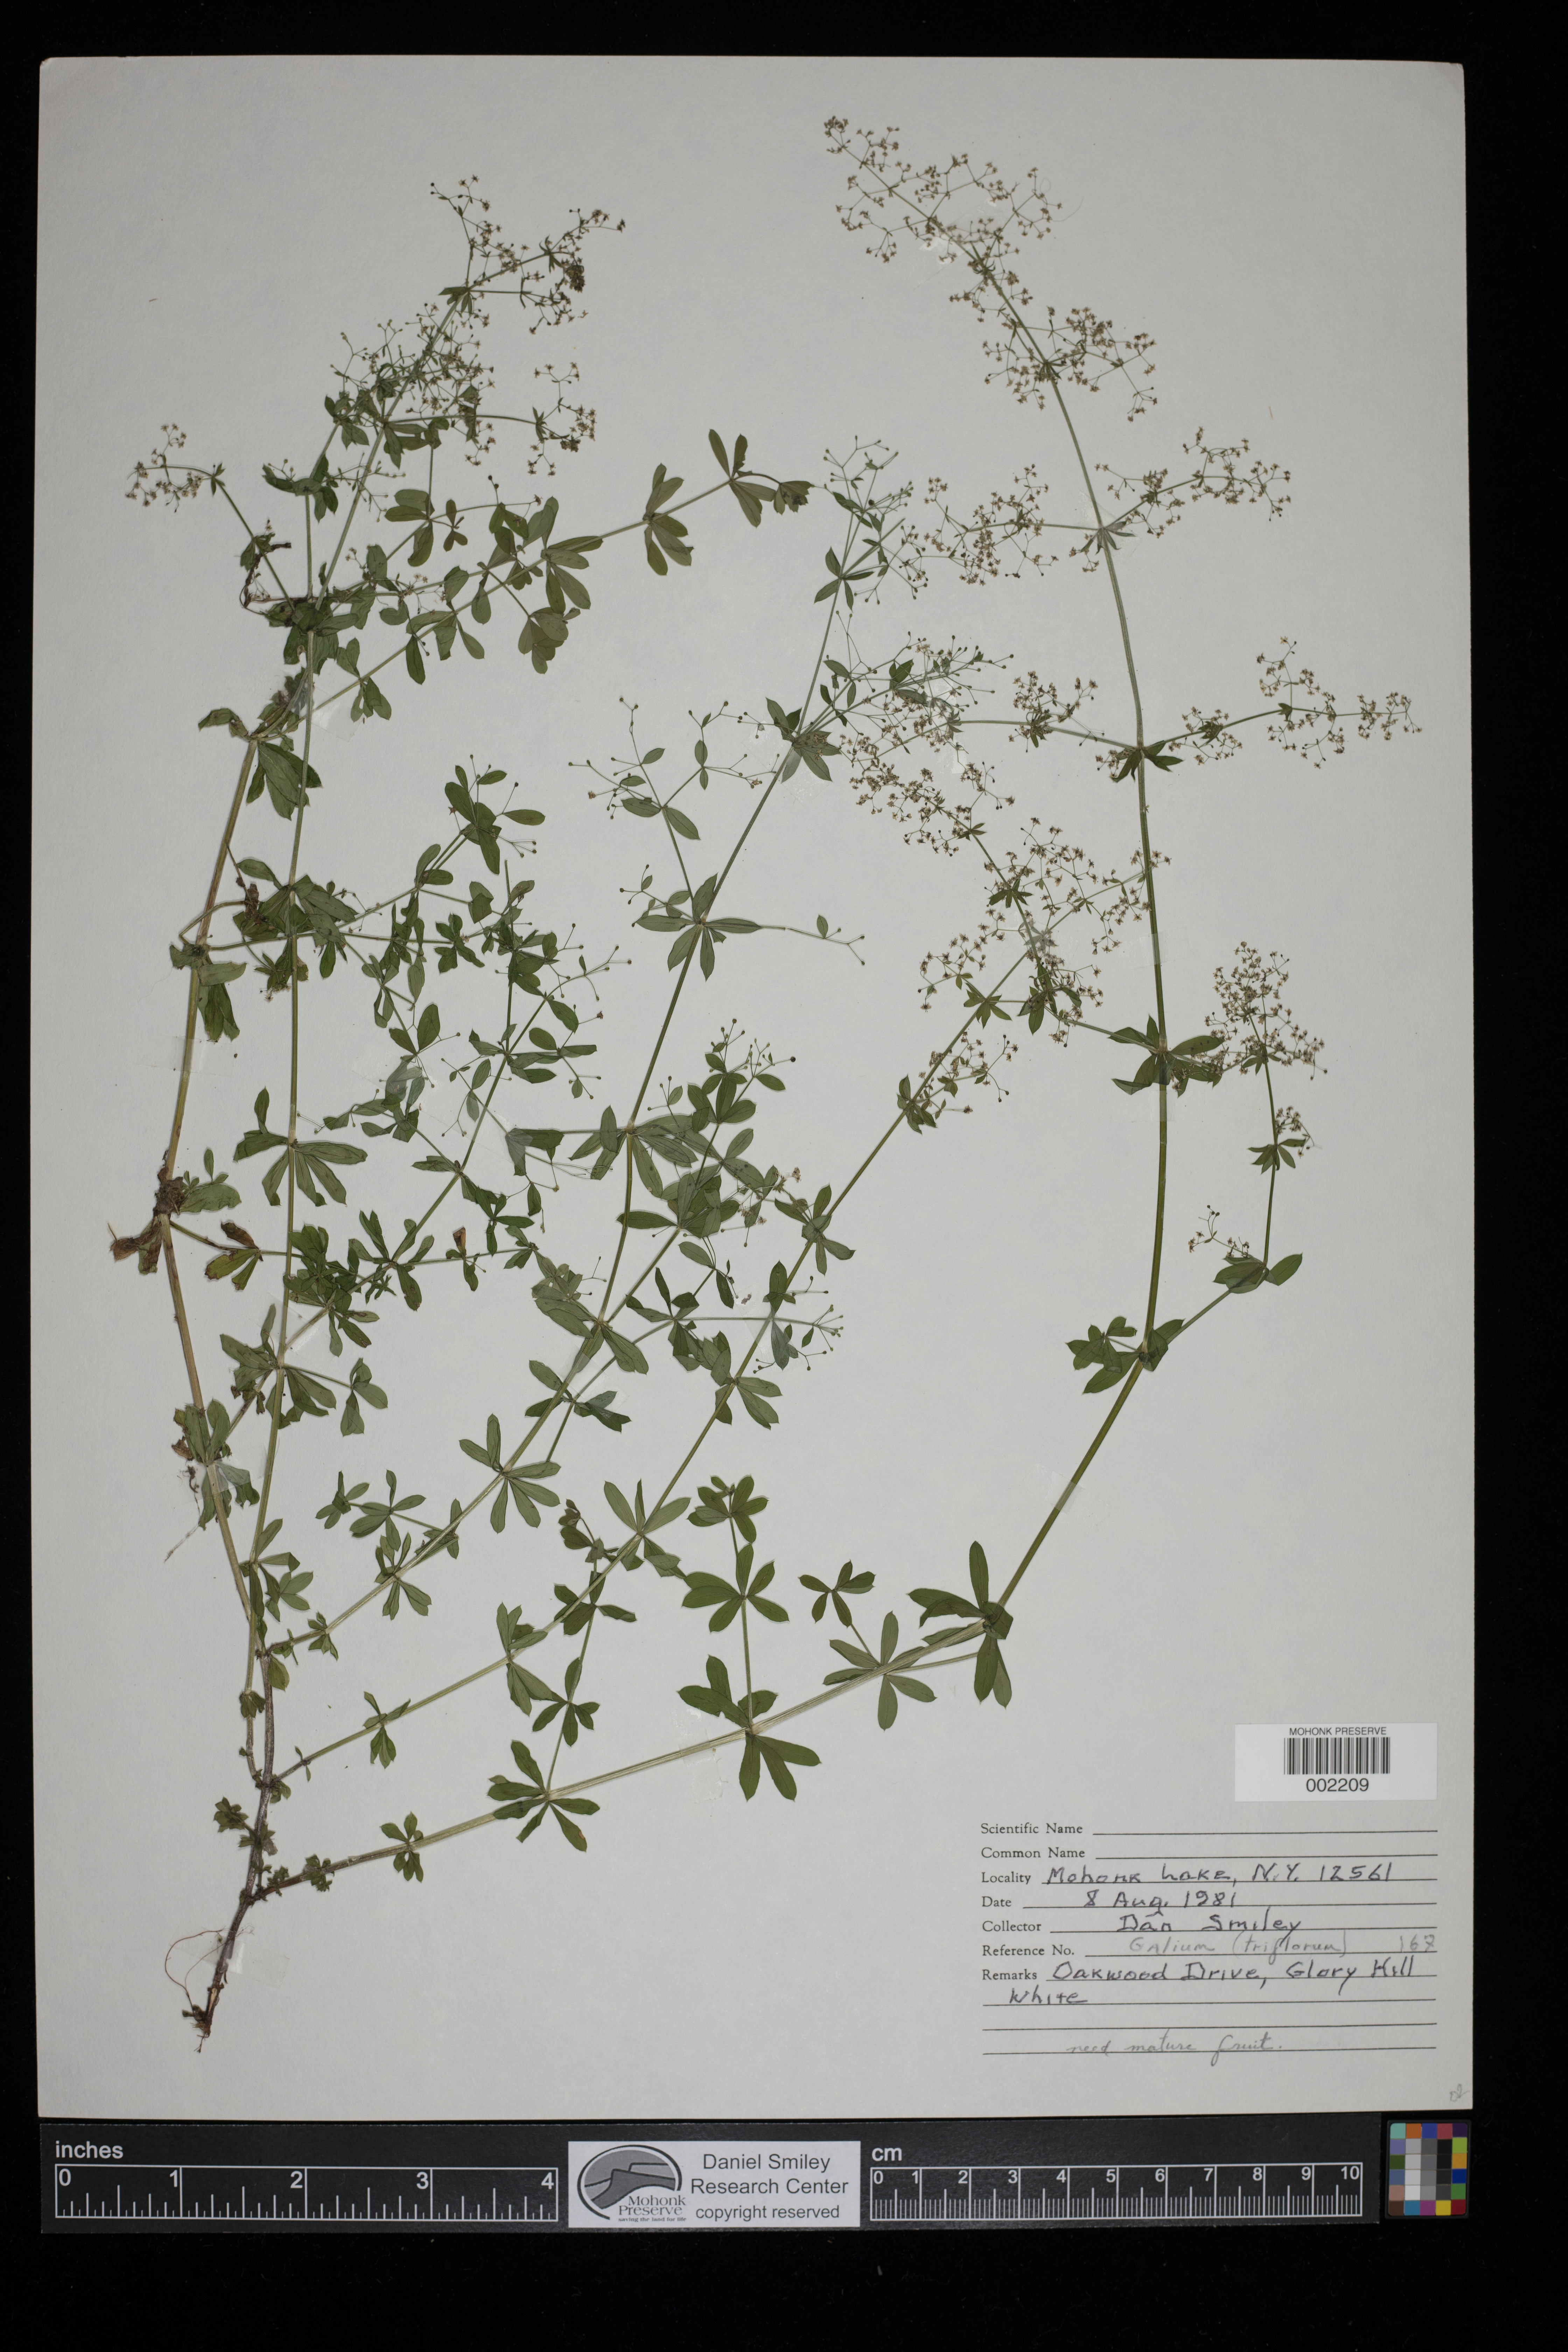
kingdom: Plantae
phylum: Tracheophyta
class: Magnoliopsida
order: Gentianales
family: Rubiaceae
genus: Galium
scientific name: Galium triflorum
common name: Fragrant bedstraw
